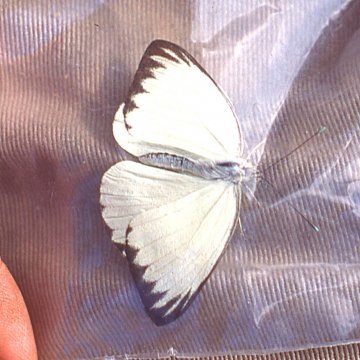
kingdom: Animalia
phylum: Arthropoda
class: Insecta
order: Lepidoptera
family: Pieridae
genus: Ascia
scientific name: Ascia monuste
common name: Great Southern White
